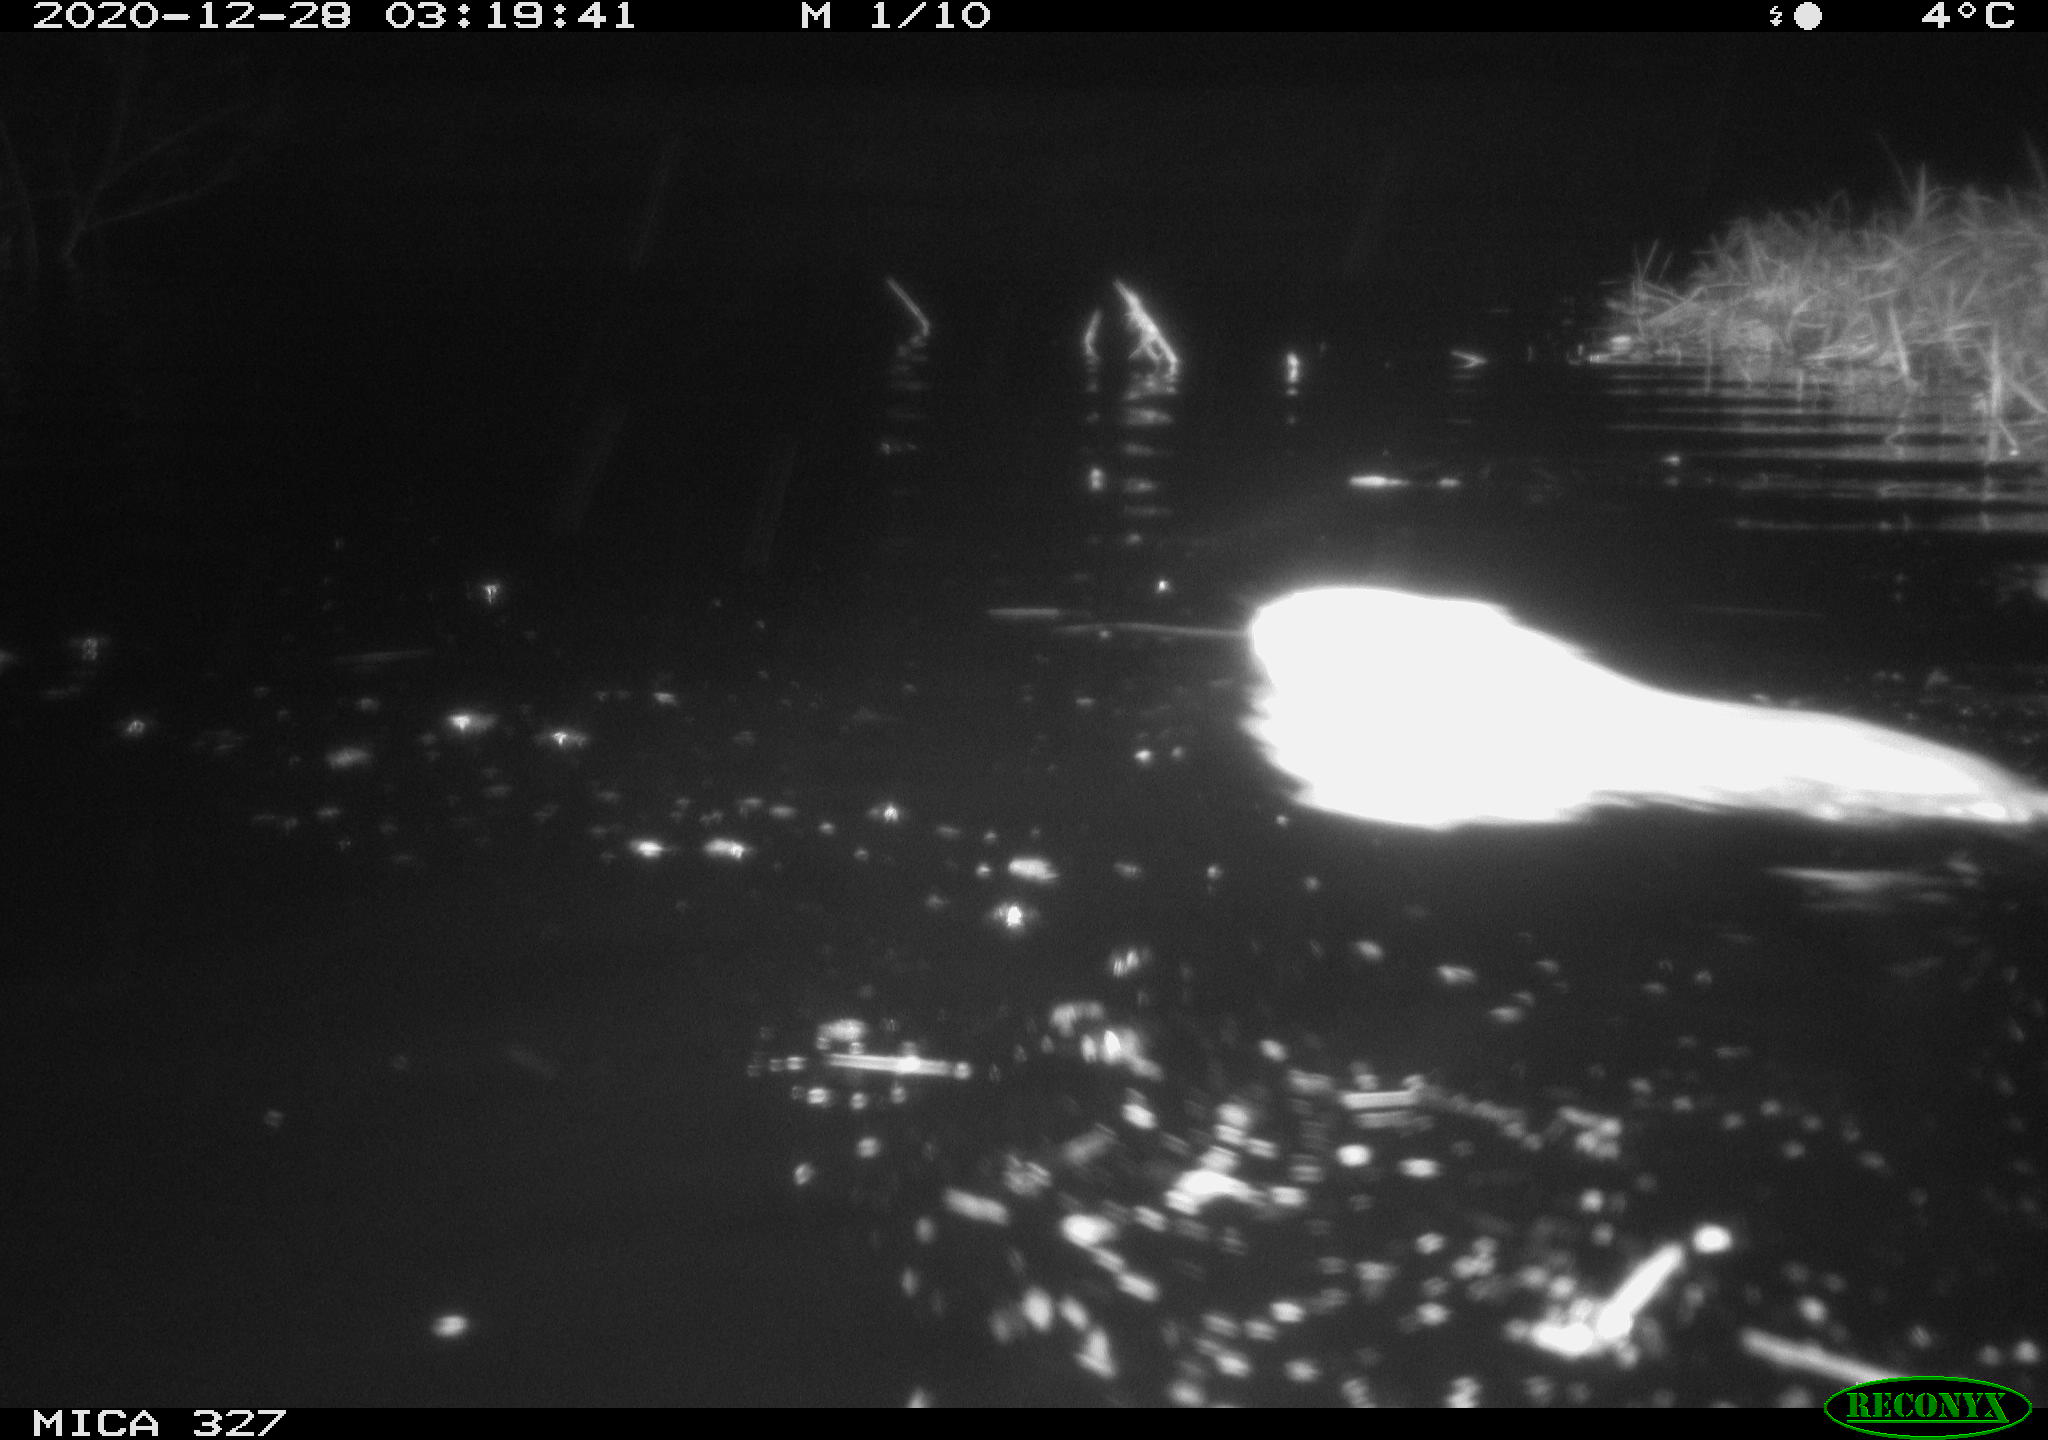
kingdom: Animalia
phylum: Chordata
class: Mammalia
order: Rodentia
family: Cricetidae
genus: Ondatra
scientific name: Ondatra zibethicus
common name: Muskrat
